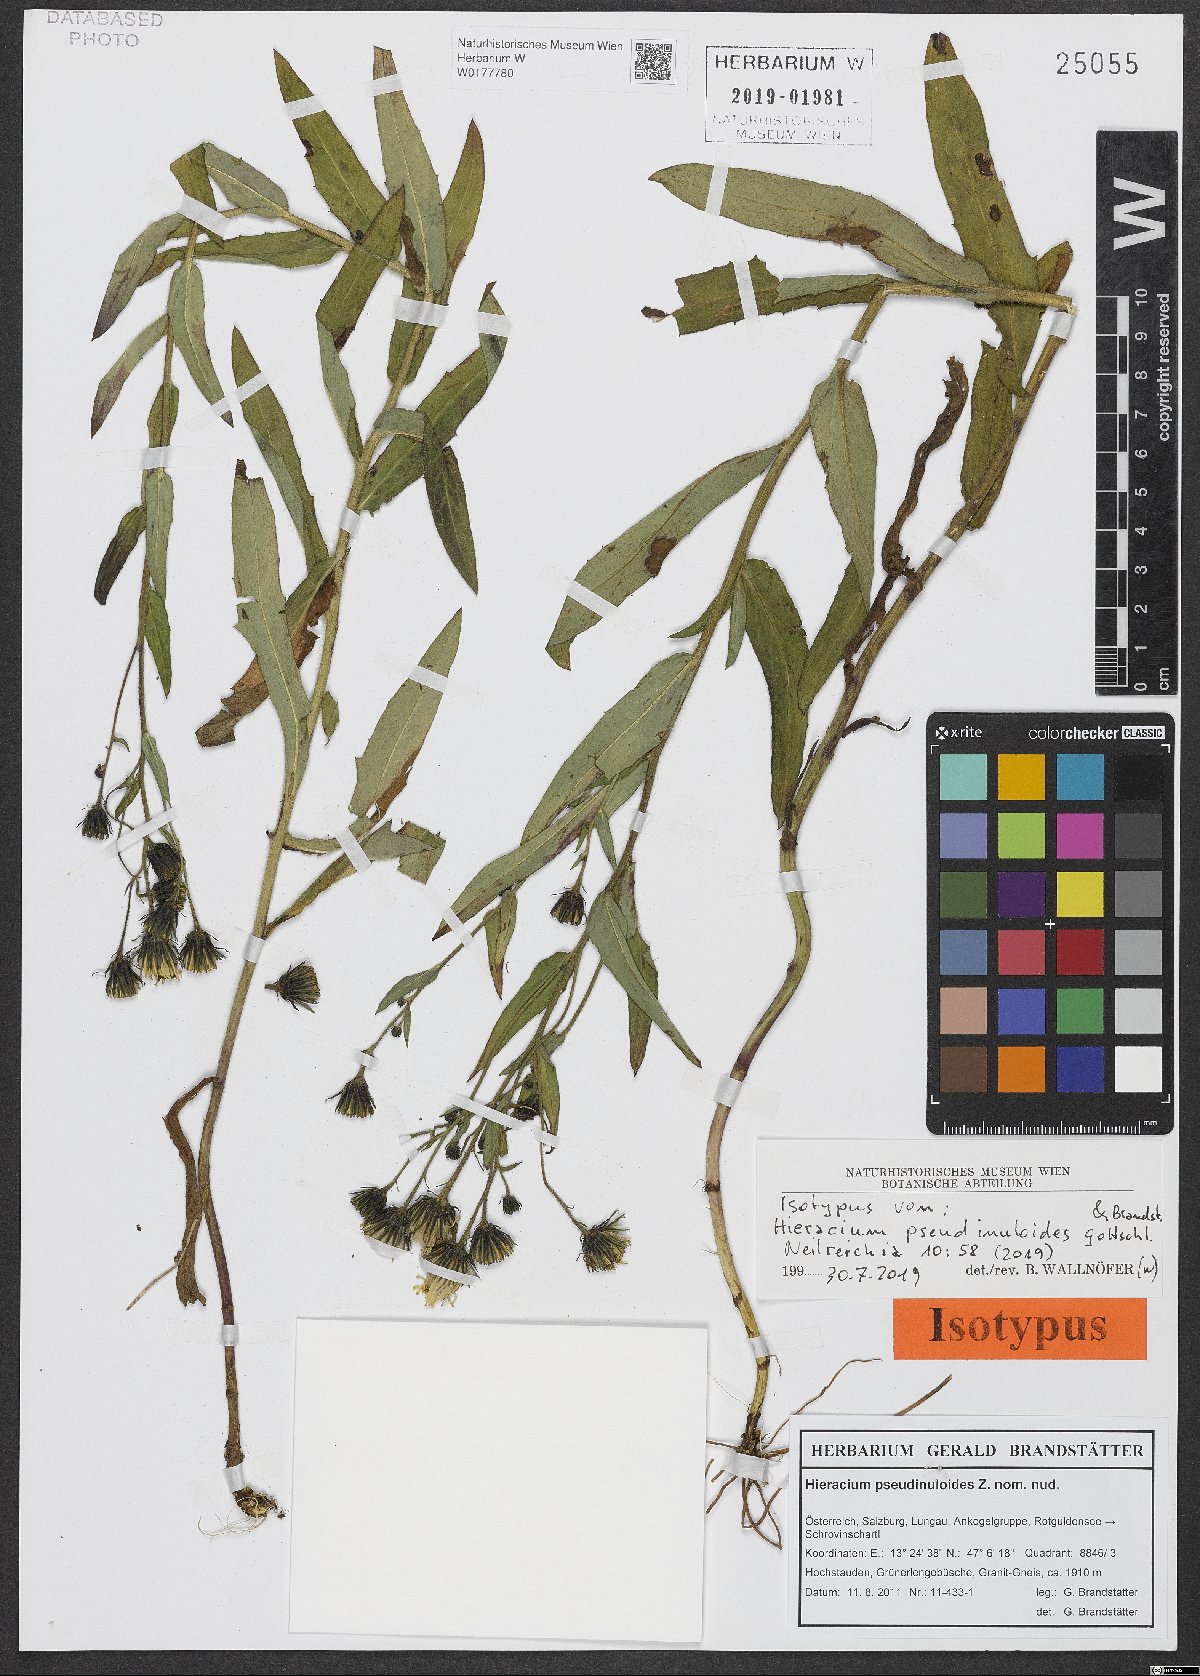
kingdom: Plantae
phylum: Tracheophyta
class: Magnoliopsida
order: Asterales
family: Asteraceae
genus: Hieracium
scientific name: Hieracium pseudinuloides
